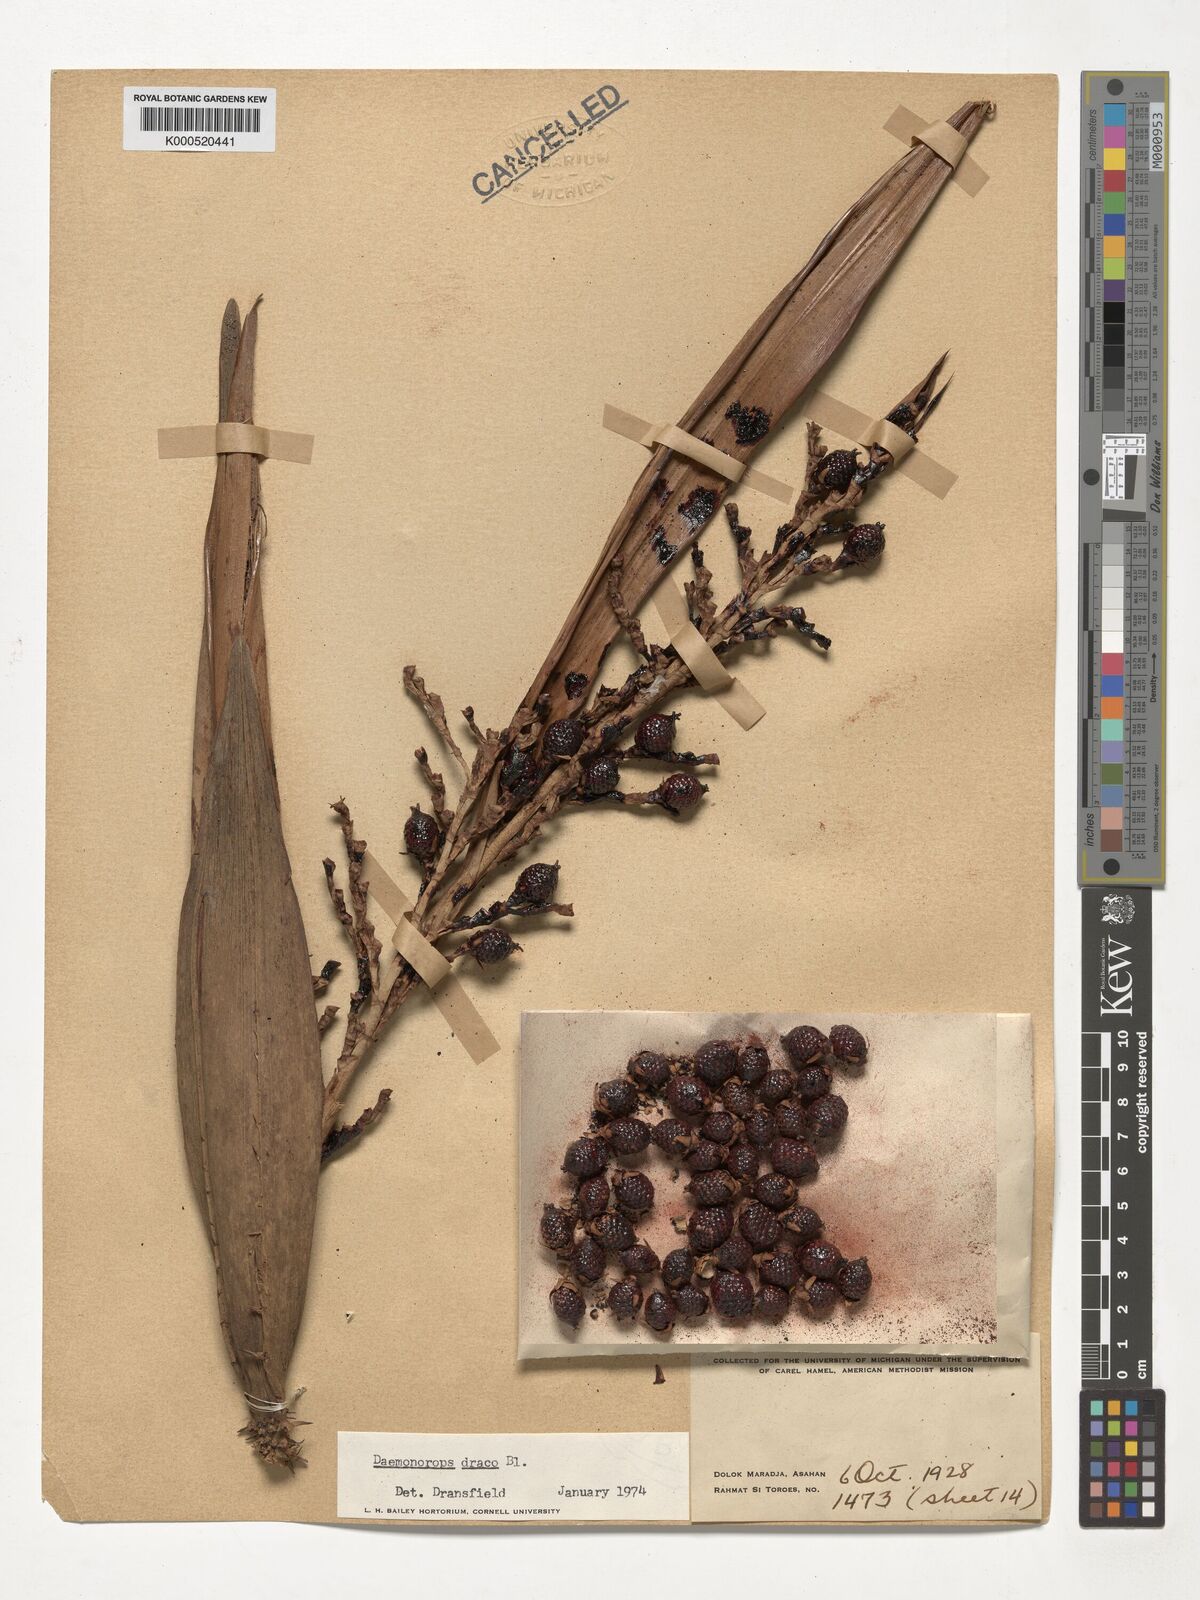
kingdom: Plantae
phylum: Tracheophyta
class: Liliopsida
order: Arecales
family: Arecaceae
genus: Calamus
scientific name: Calamus draco
